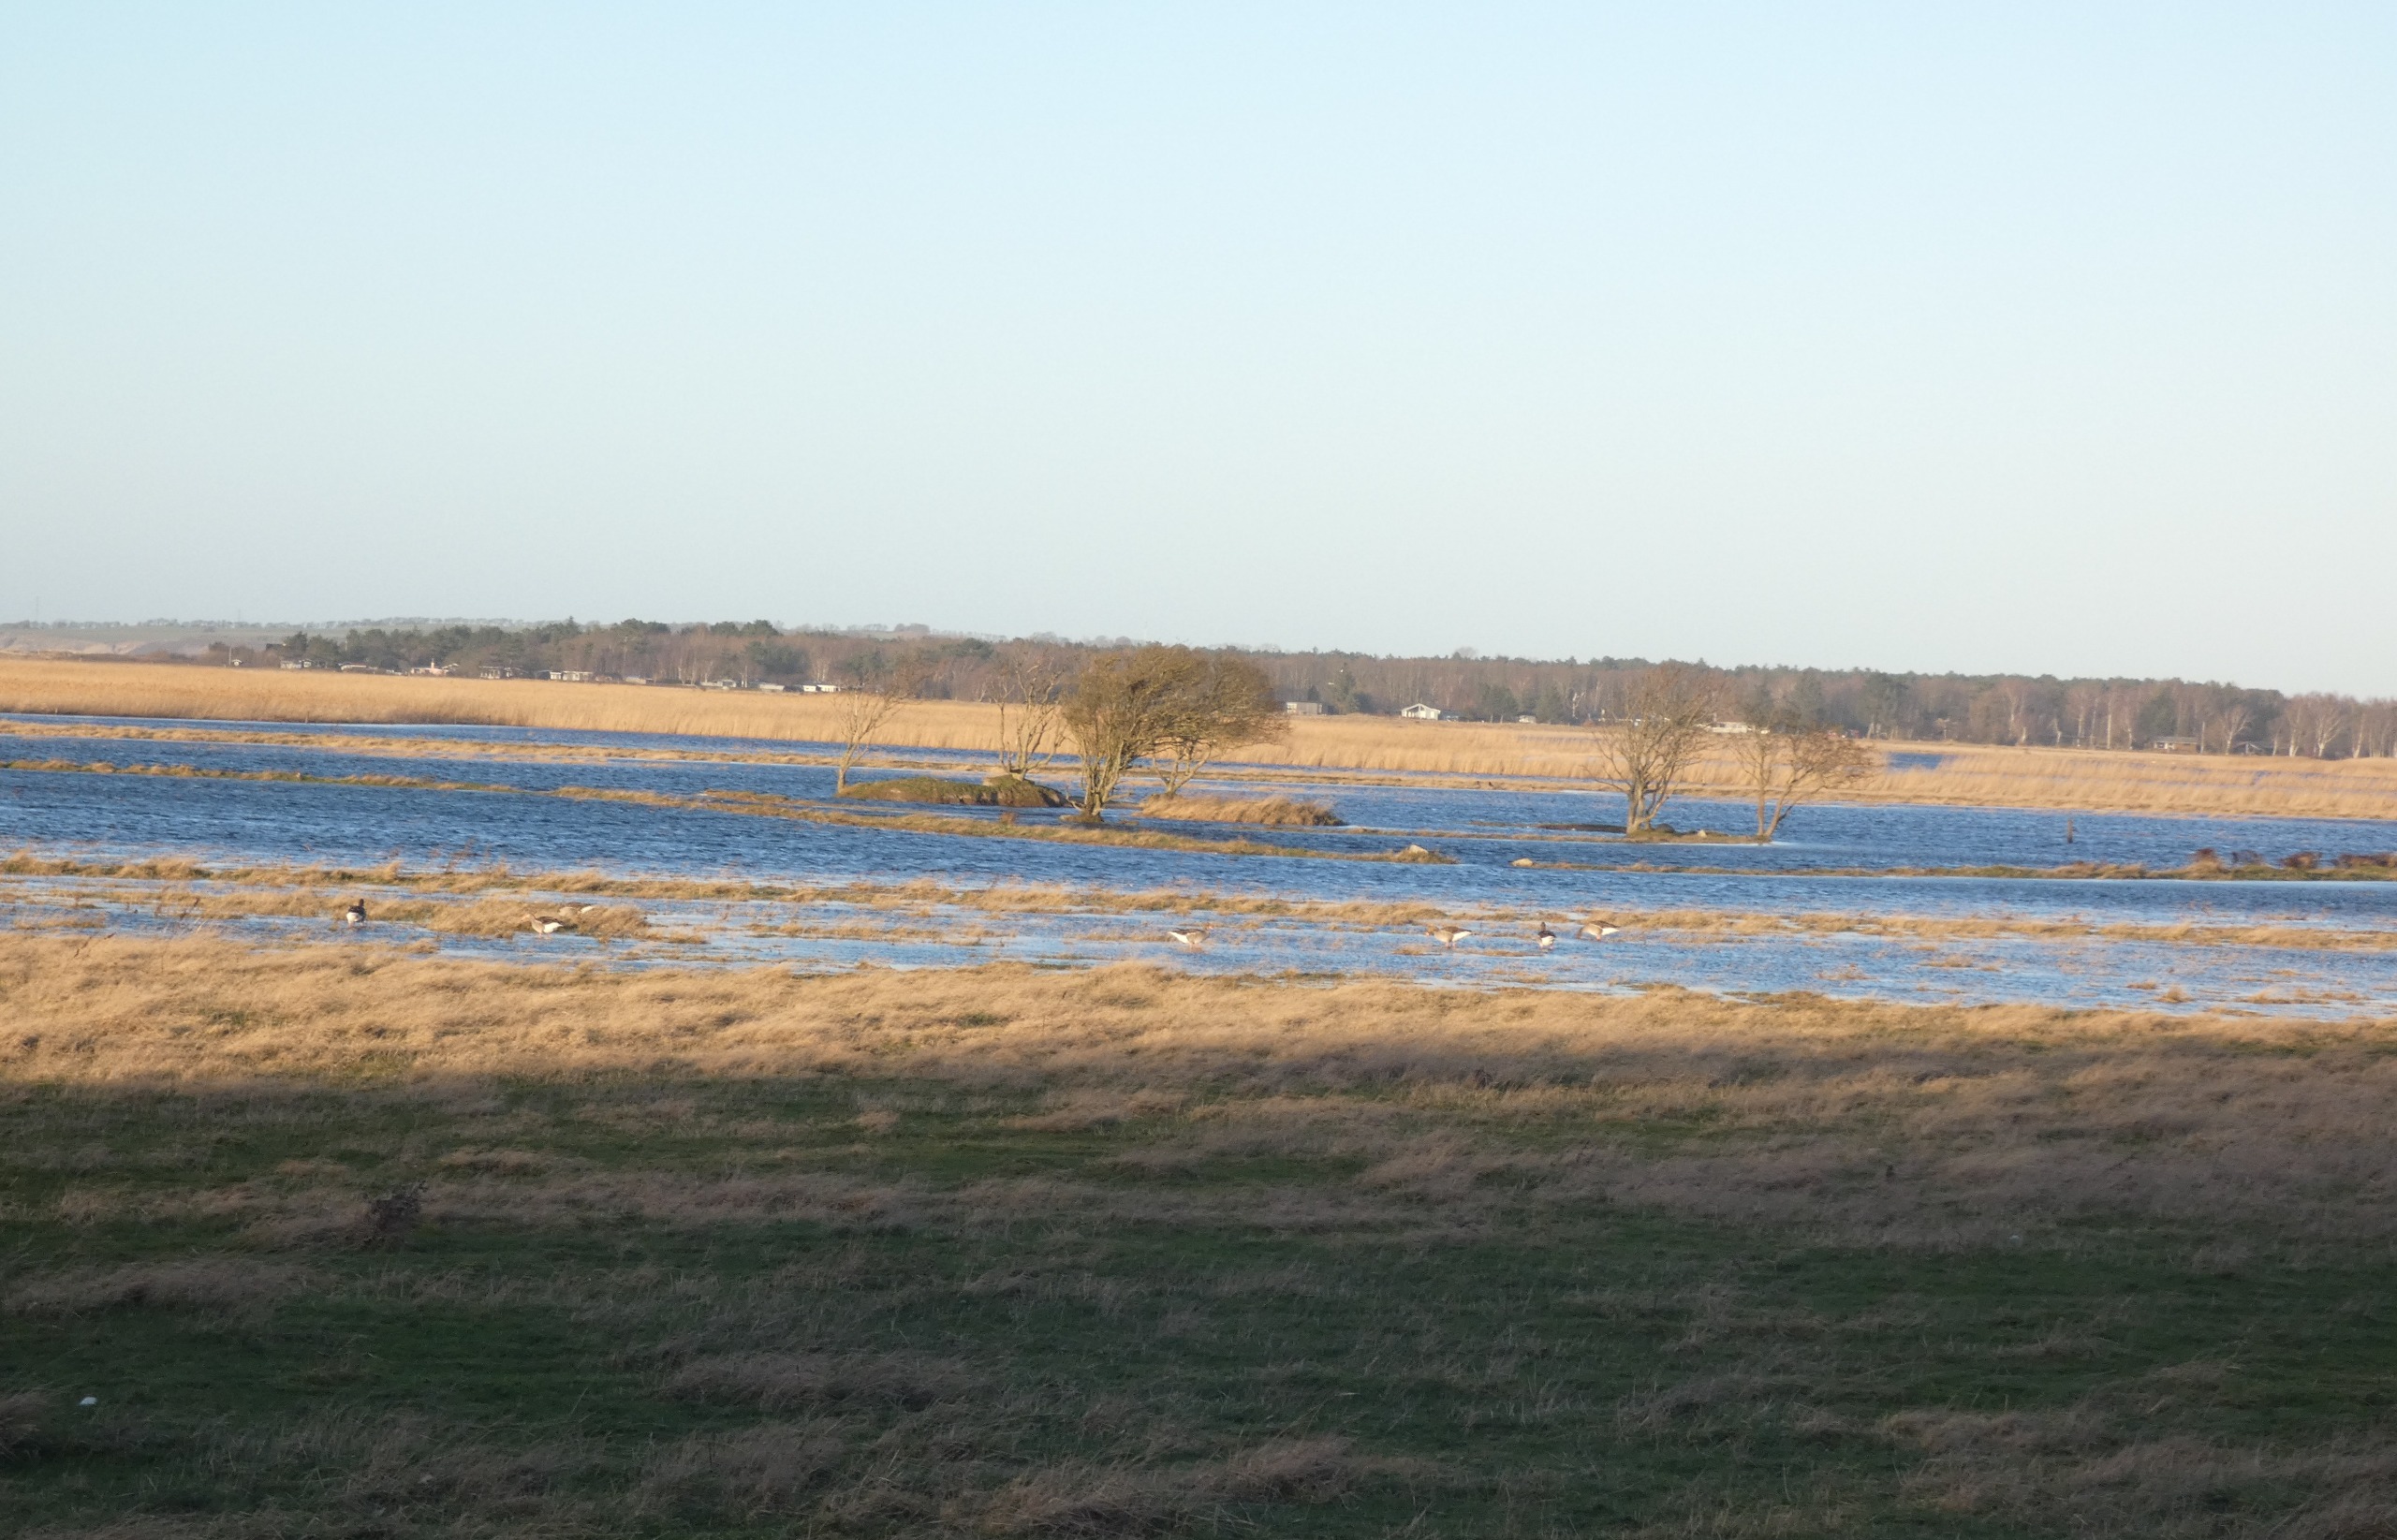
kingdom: Animalia
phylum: Chordata
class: Aves
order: Anseriformes
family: Anatidae
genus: Anser
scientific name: Anser anser
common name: Grågås
